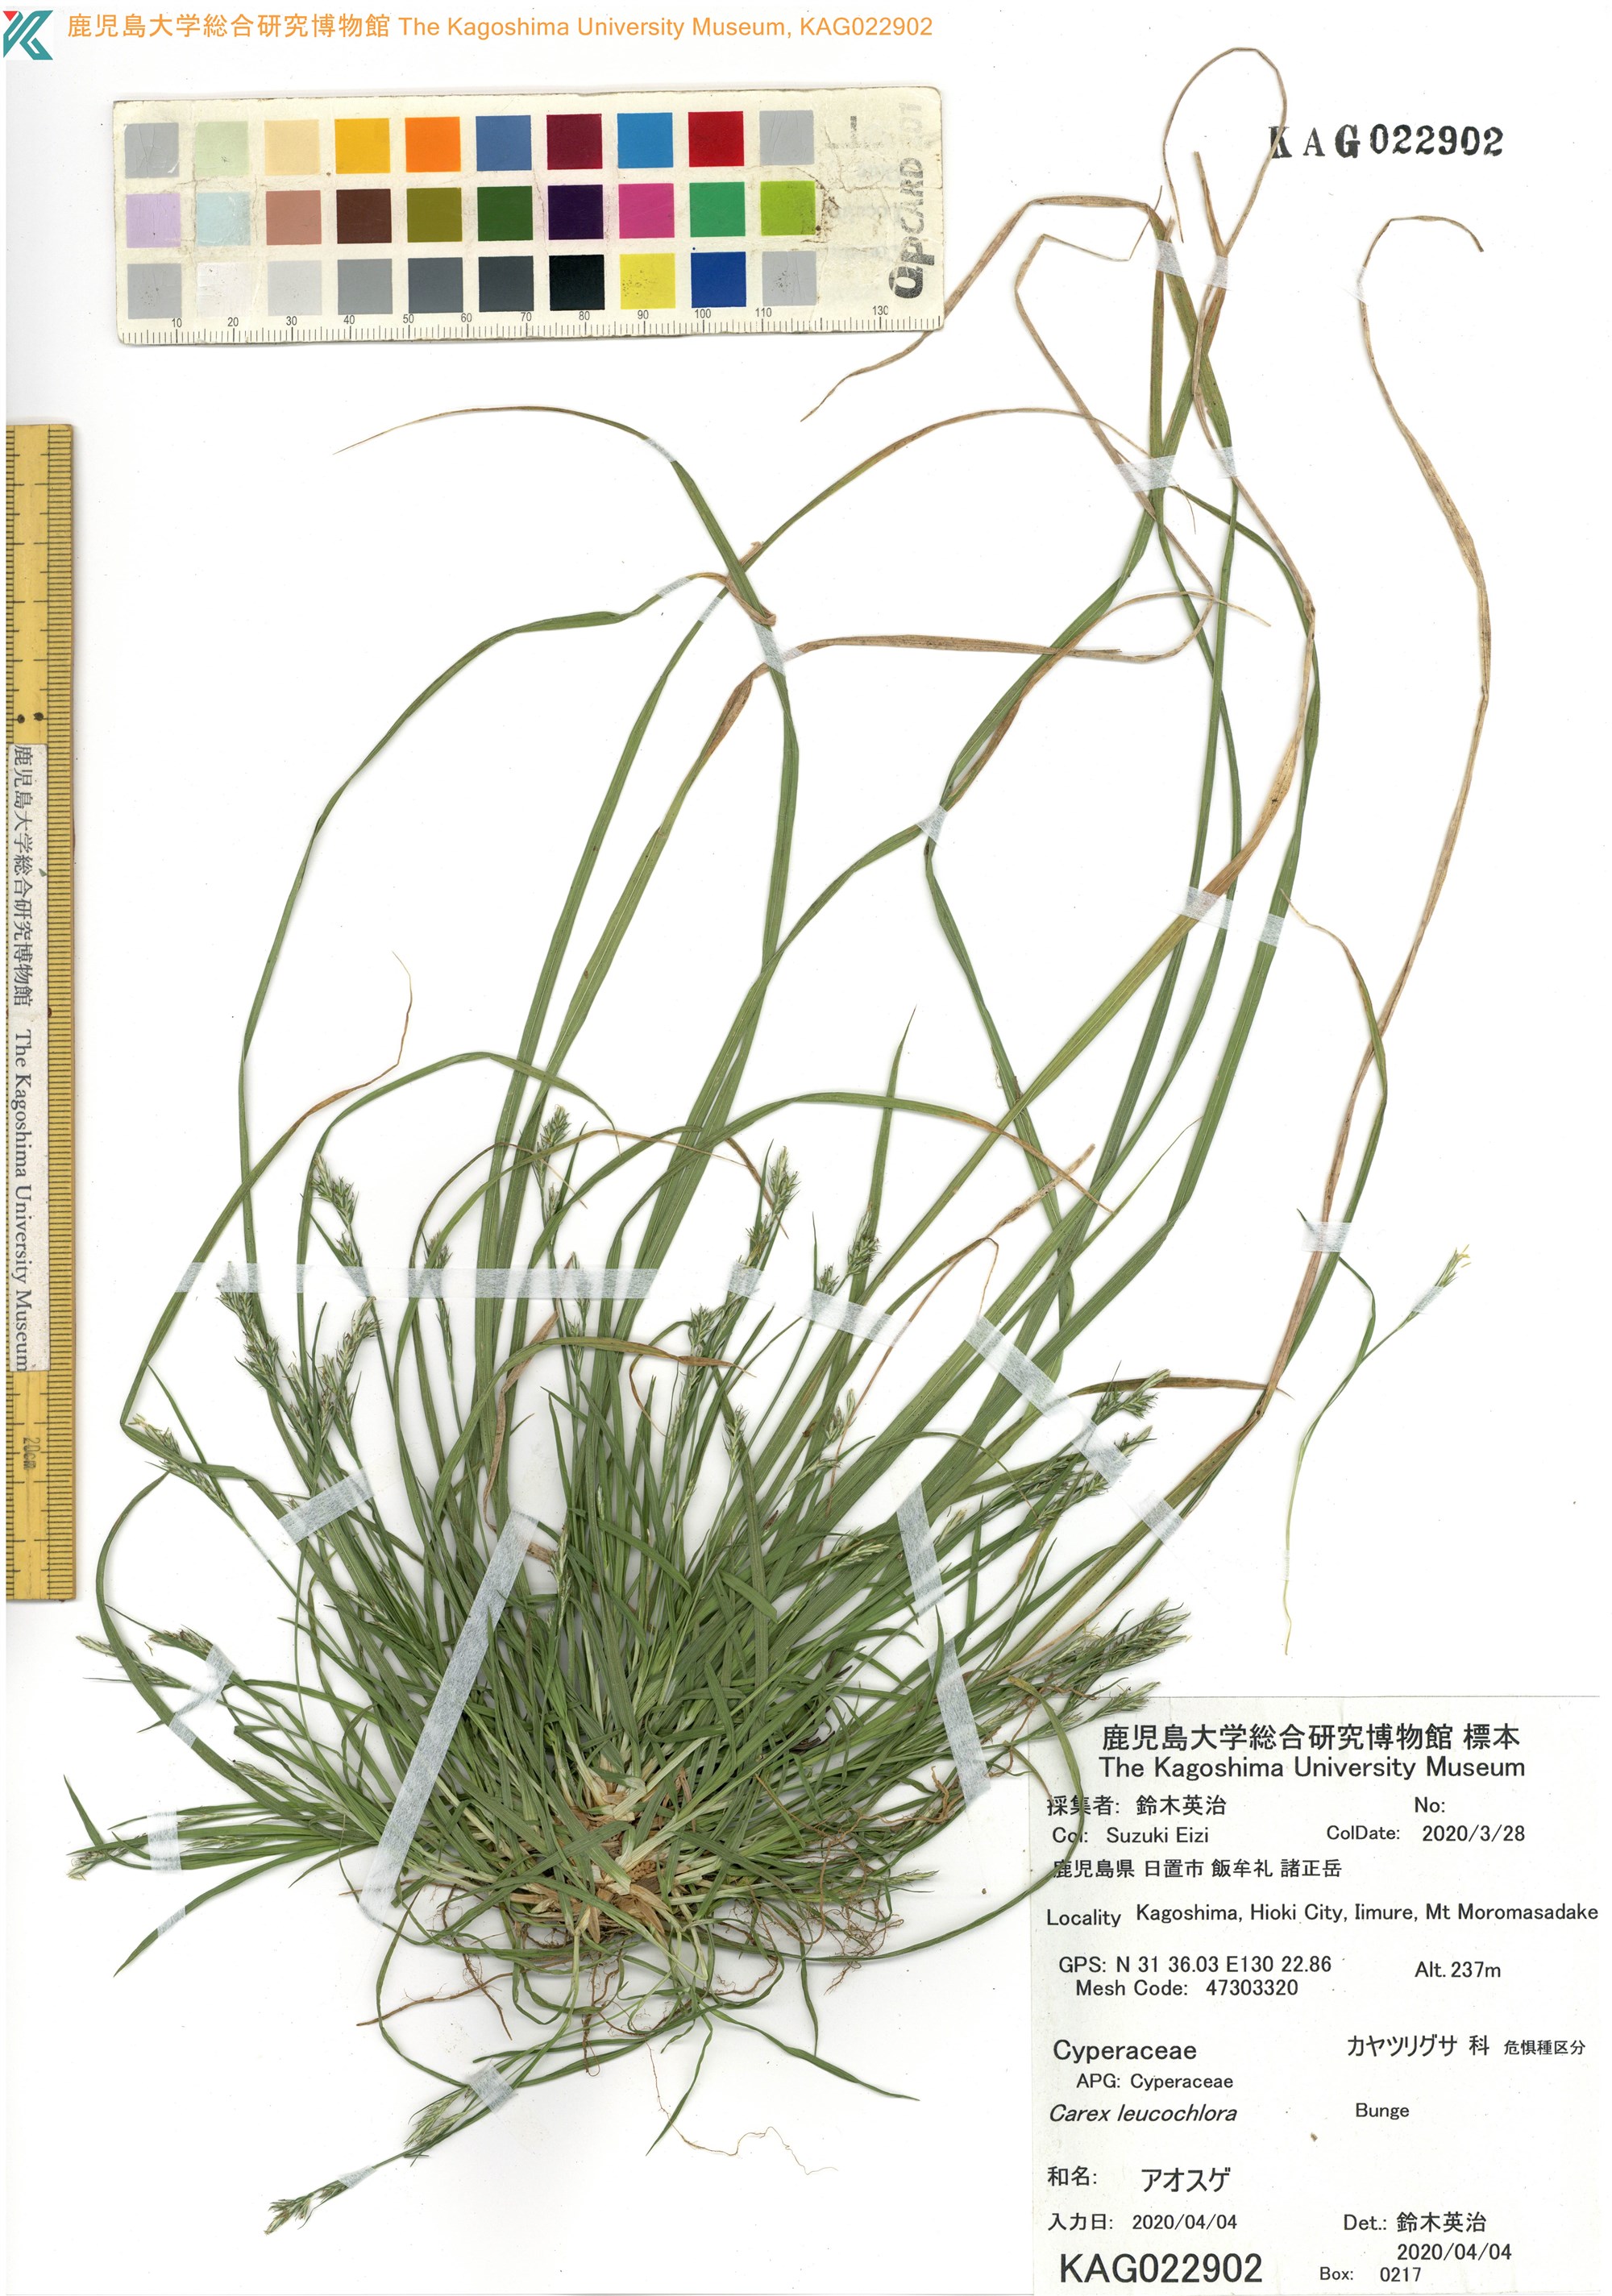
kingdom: Plantae
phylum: Tracheophyta
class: Liliopsida
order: Poales
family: Cyperaceae
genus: Carex
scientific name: Carex leucochlora
